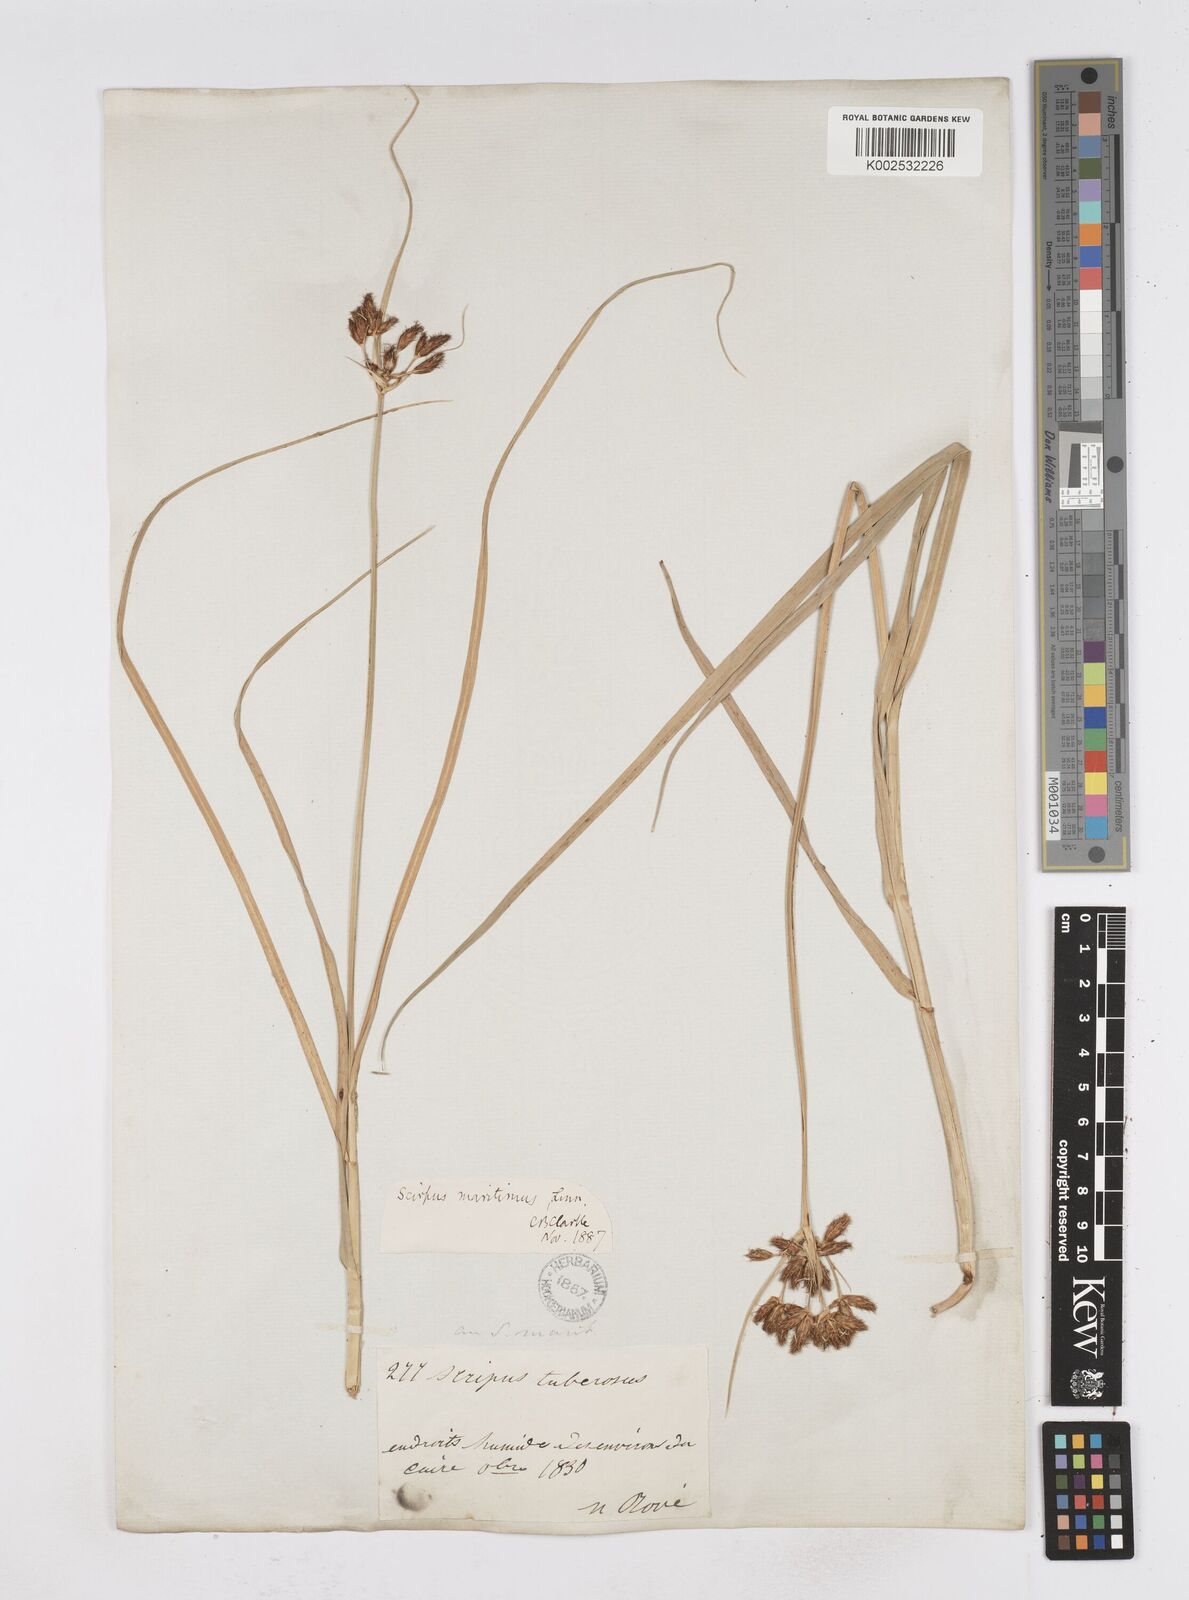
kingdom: Plantae
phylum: Tracheophyta
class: Liliopsida
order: Poales
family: Cyperaceae
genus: Bolboschoenus
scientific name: Bolboschoenus maritimus
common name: Sea club-rush
